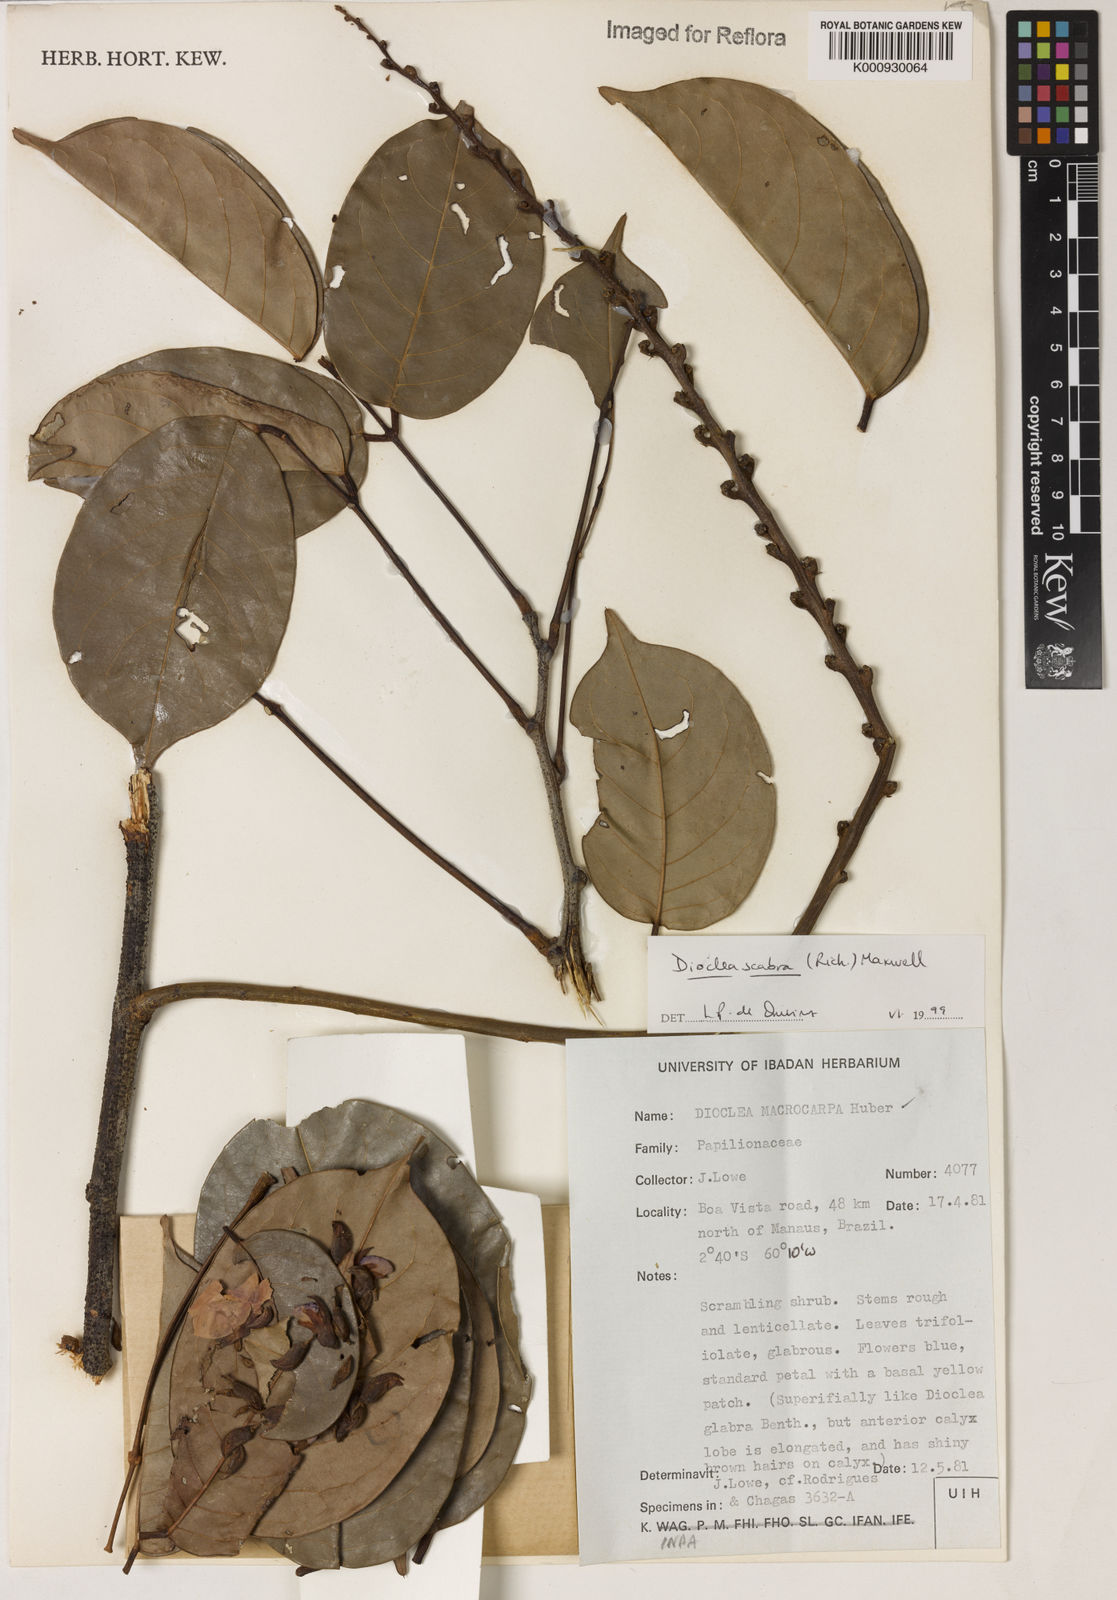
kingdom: Plantae
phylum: Tracheophyta
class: Magnoliopsida
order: Fabales
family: Fabaceae
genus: Macropsychanthus
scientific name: Macropsychanthus scaber
